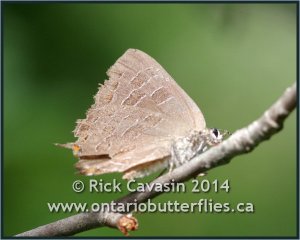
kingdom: Animalia
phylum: Arthropoda
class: Insecta
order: Lepidoptera
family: Lycaenidae
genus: Satyrium
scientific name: Satyrium liparops
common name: Striped Hairstreak
